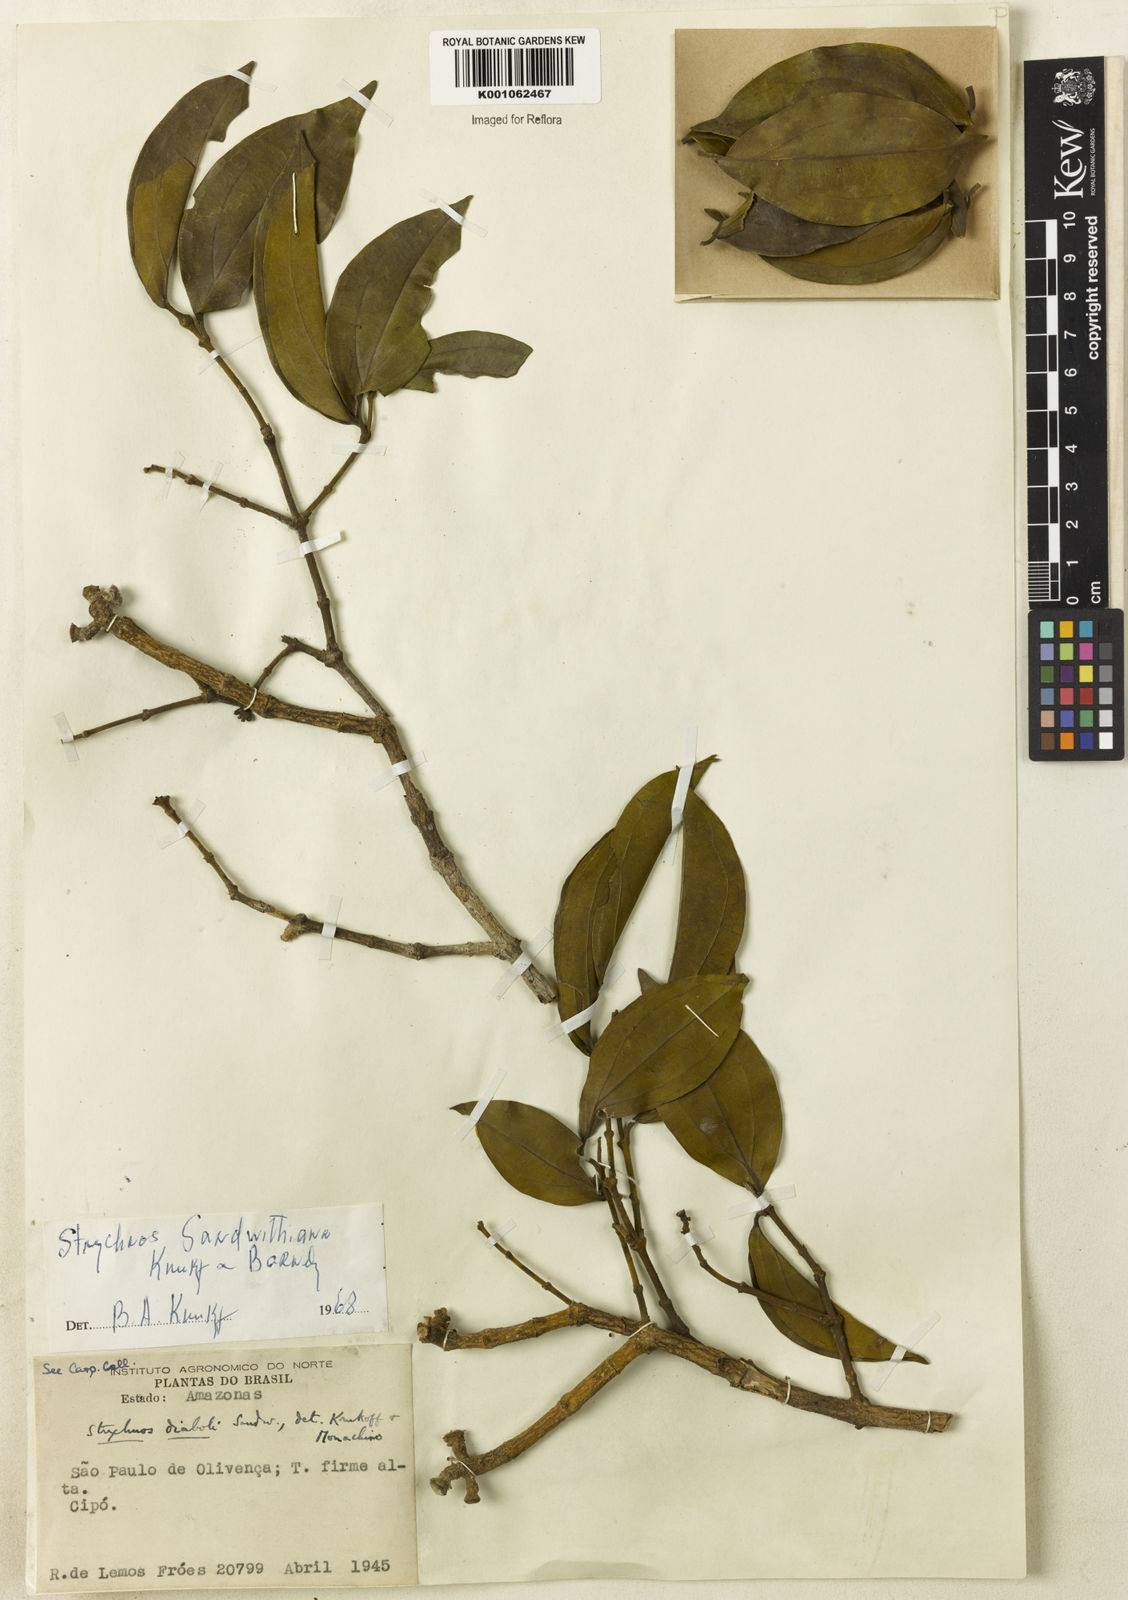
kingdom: Plantae
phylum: Tracheophyta
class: Magnoliopsida
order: Gentianales
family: Loganiaceae
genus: Strychnos
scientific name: Strychnos sandwithiana
